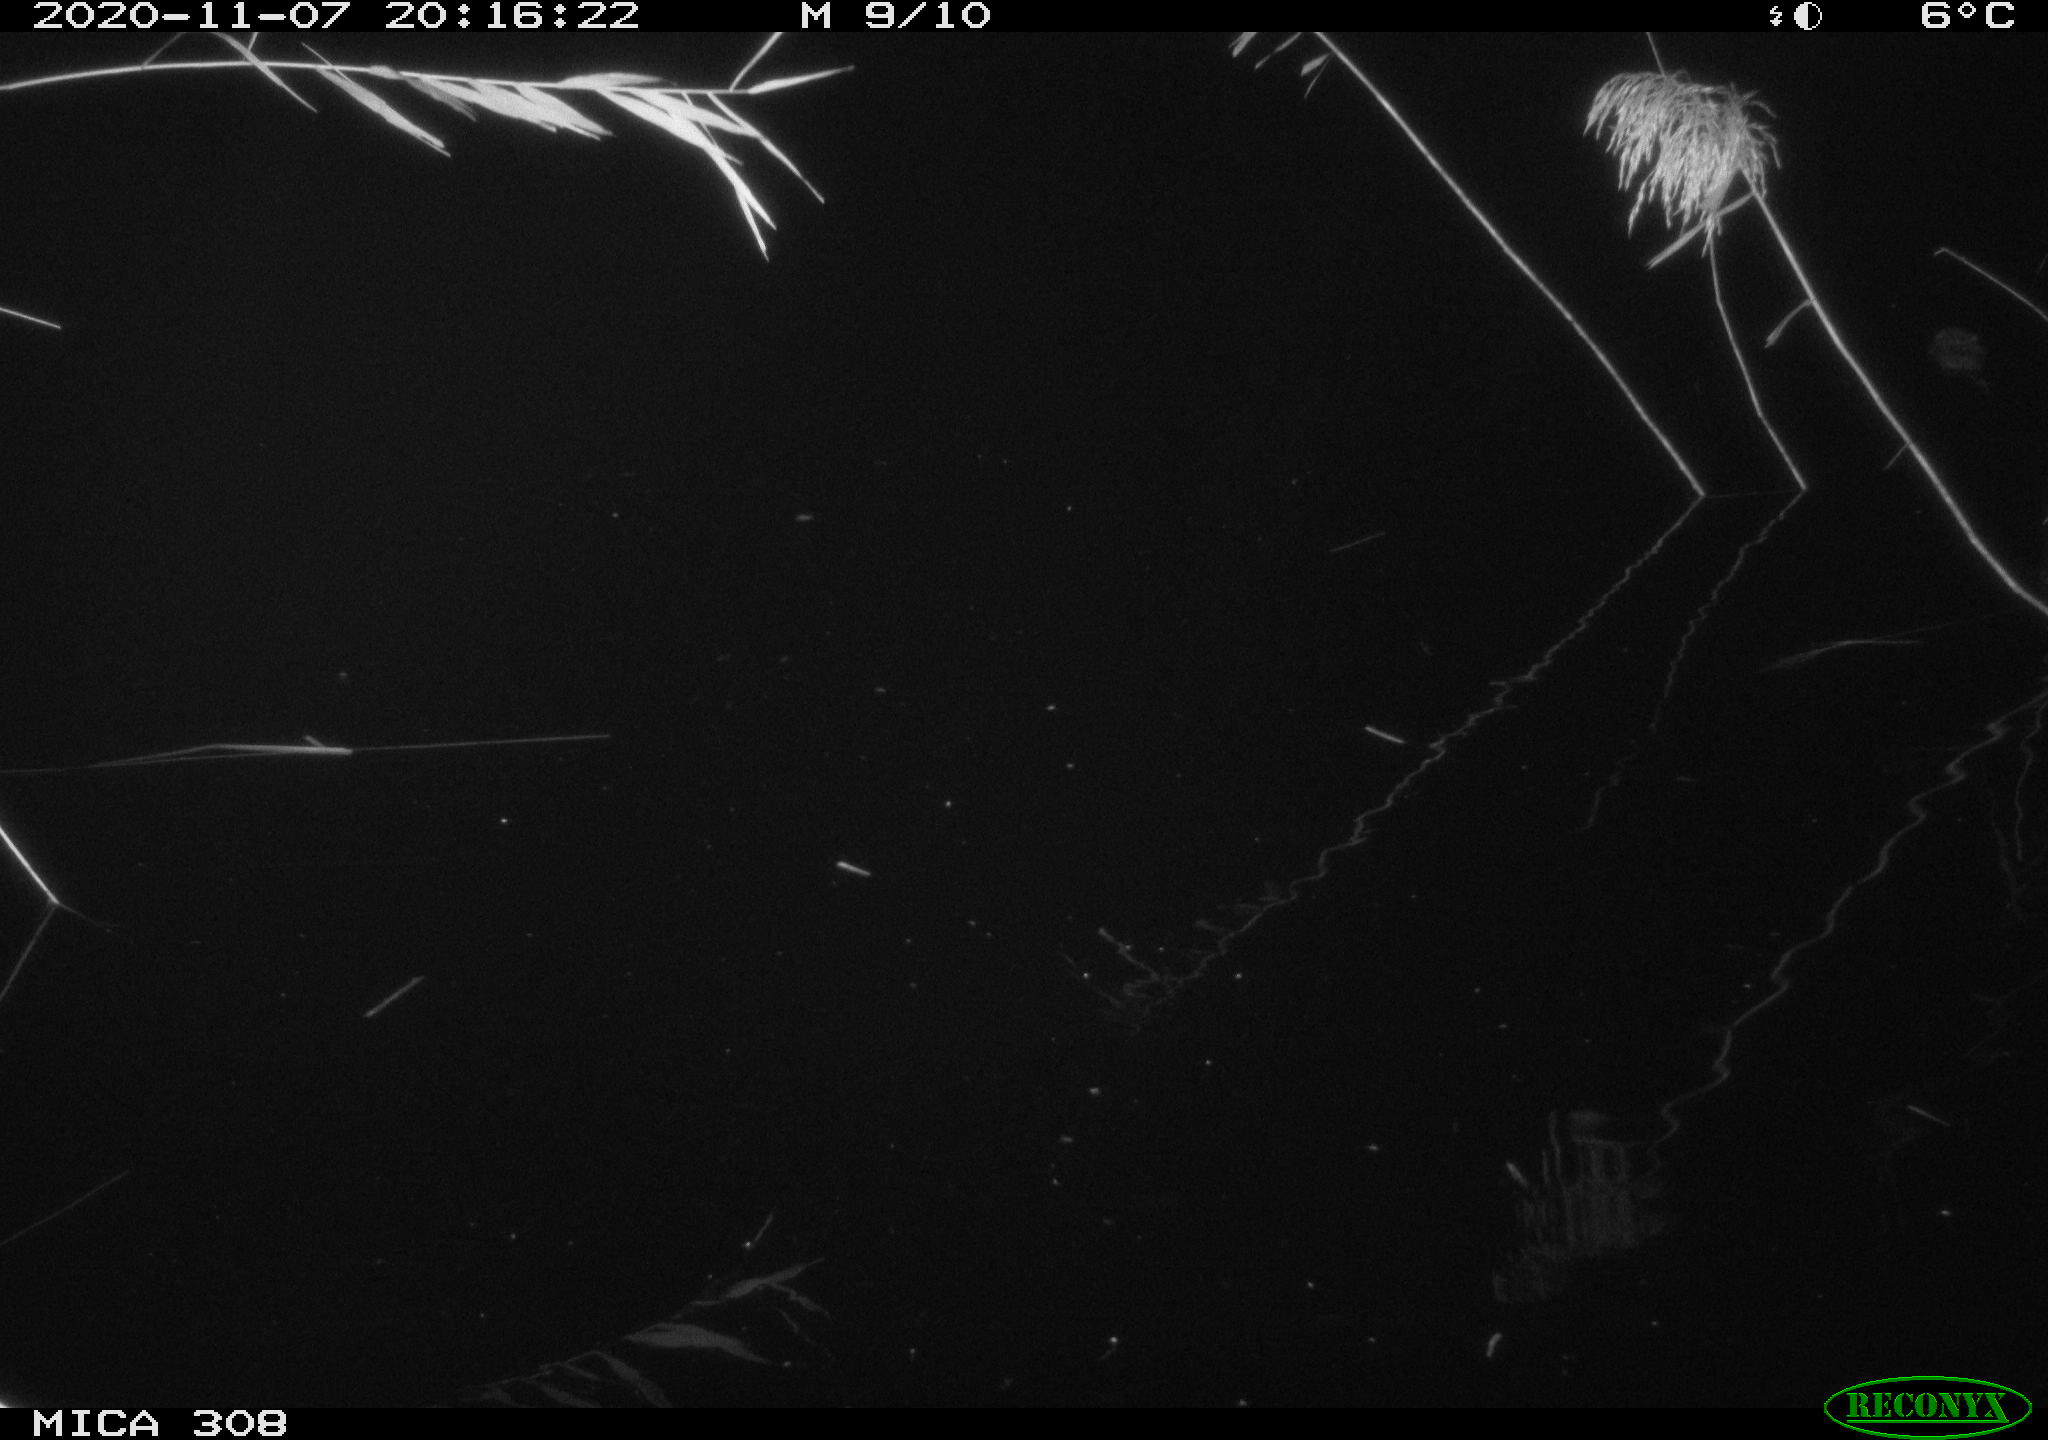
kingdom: Animalia
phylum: Chordata
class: Mammalia
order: Rodentia
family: Cricetidae
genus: Ondatra
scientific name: Ondatra zibethicus
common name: Muskrat
